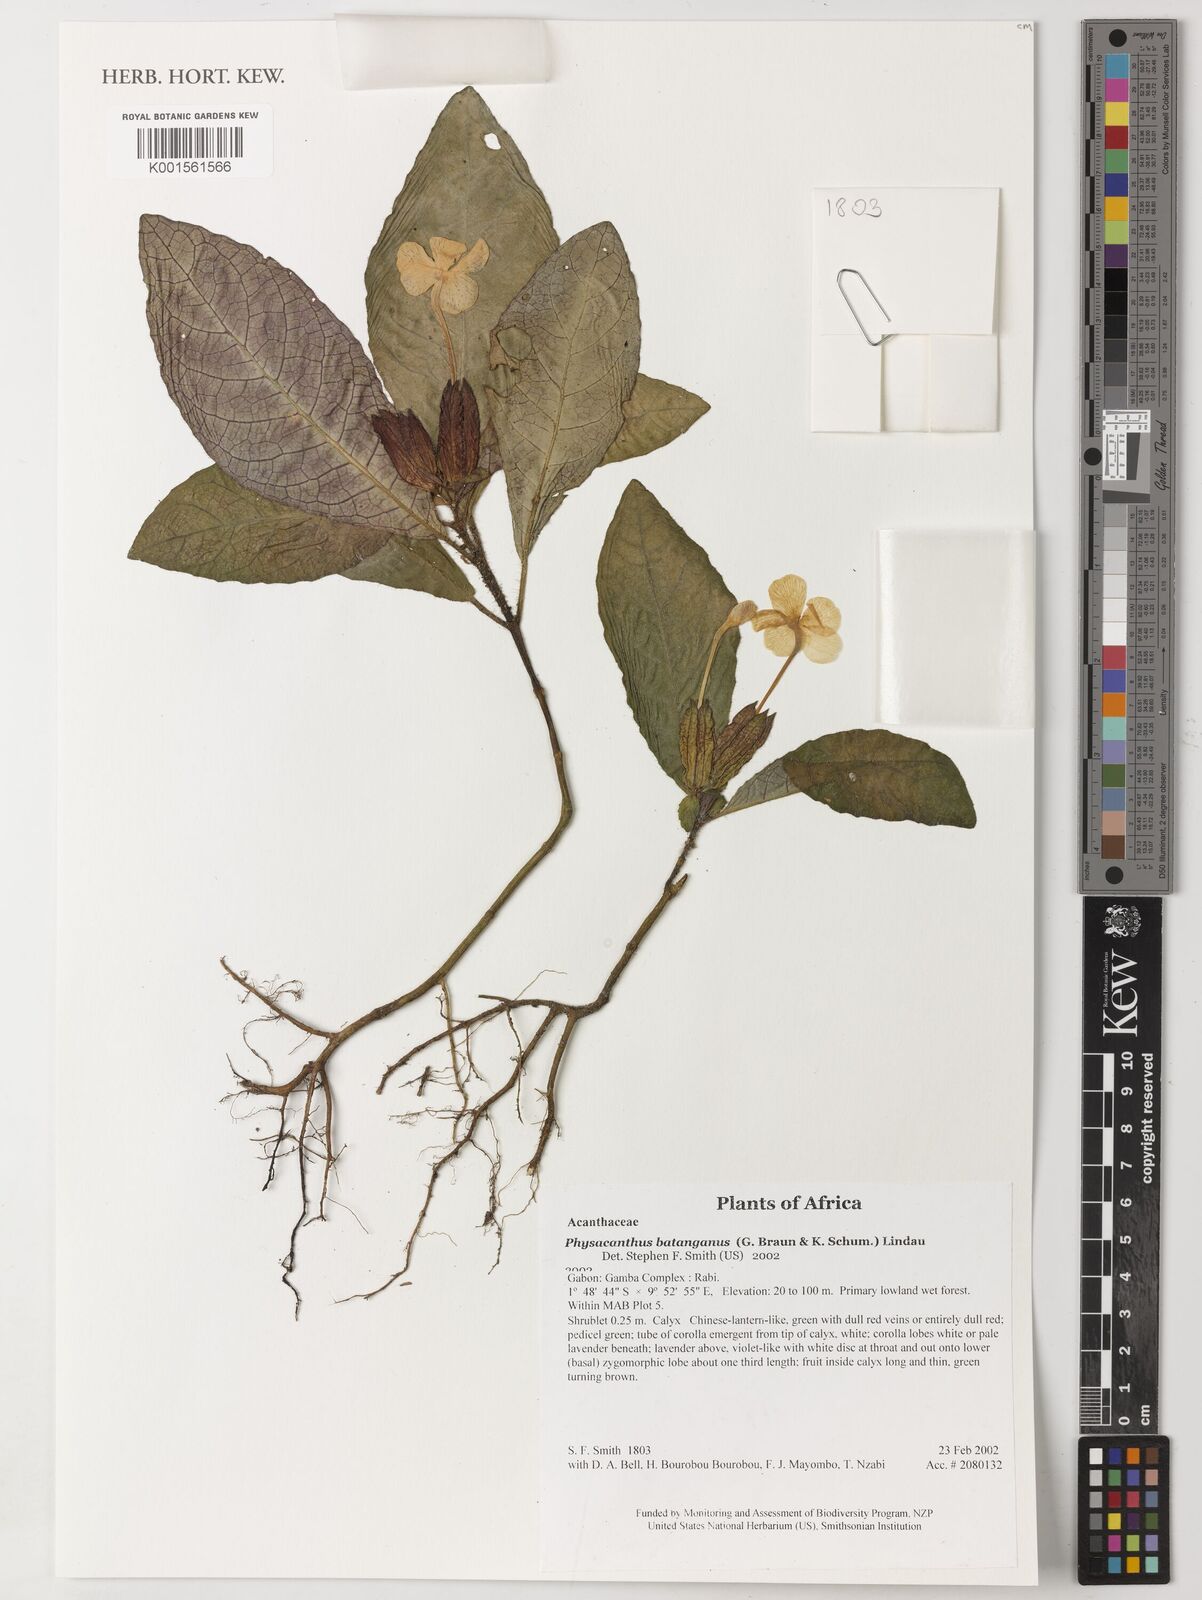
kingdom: Plantae
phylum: Tracheophyta
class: Magnoliopsida
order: Lamiales
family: Acanthaceae
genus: Physacanthus
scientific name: Physacanthus batanganus
